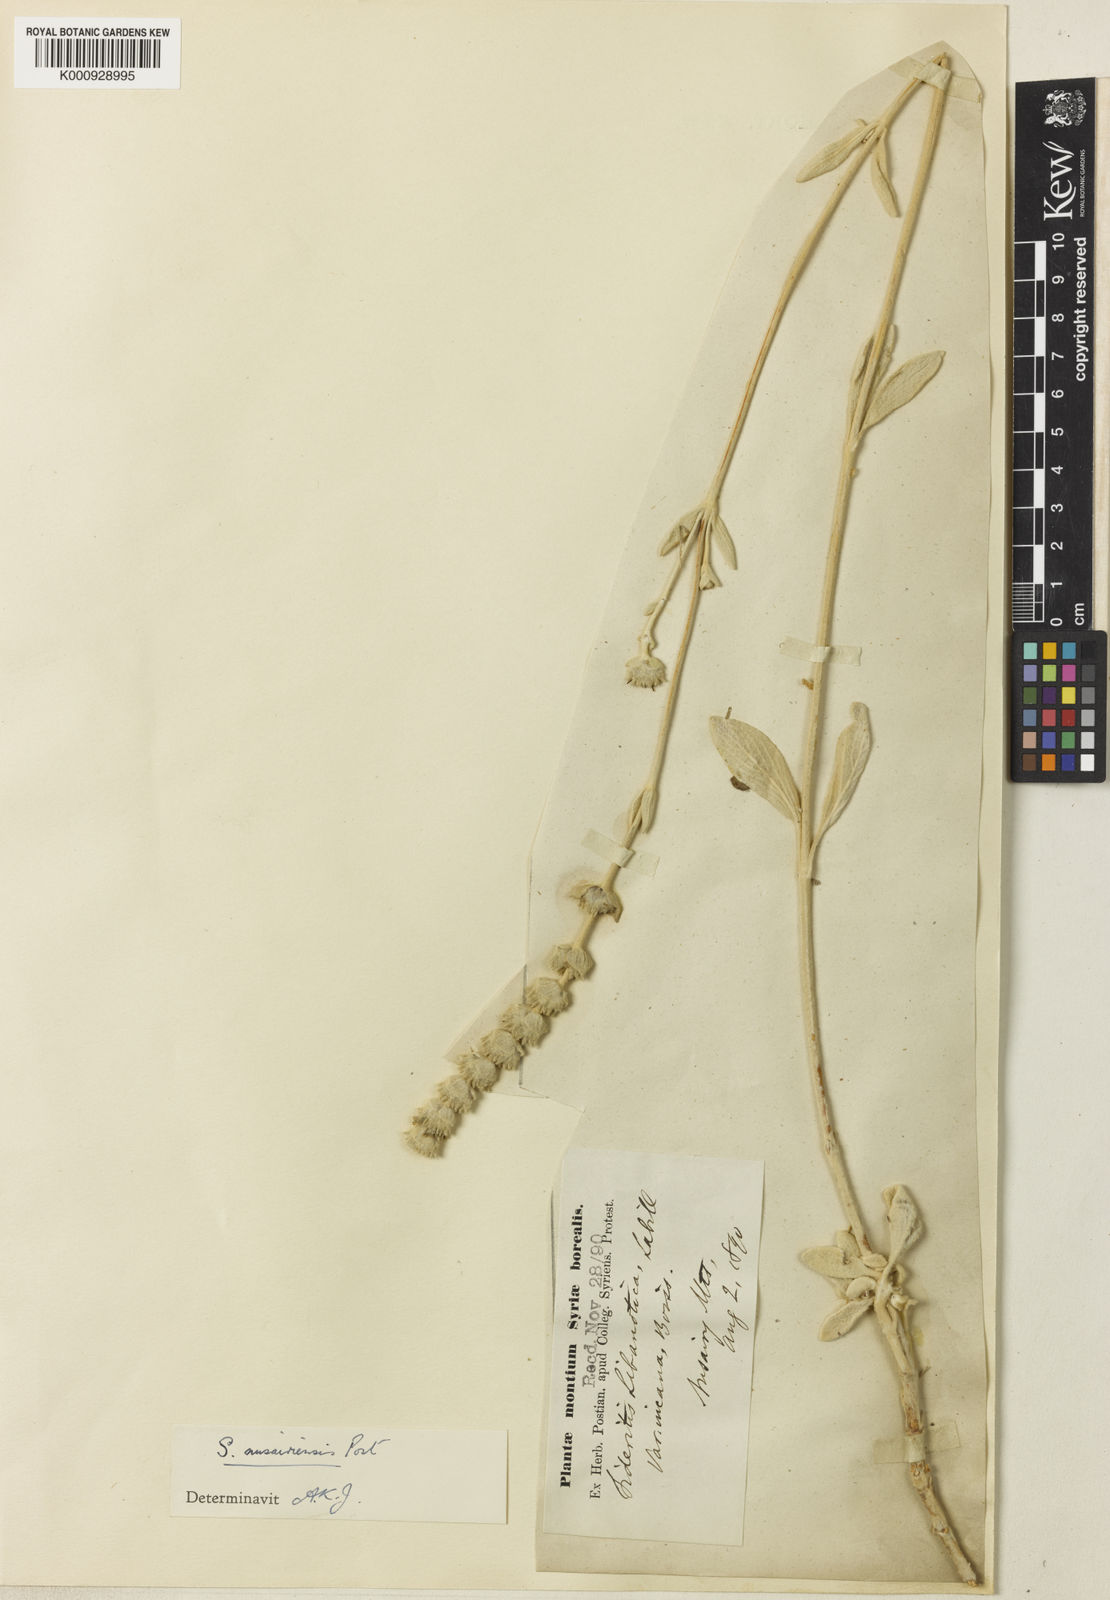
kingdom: Plantae
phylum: Tracheophyta
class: Magnoliopsida
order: Lamiales
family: Lamiaceae
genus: Sideritis
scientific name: Sideritis libanotica
